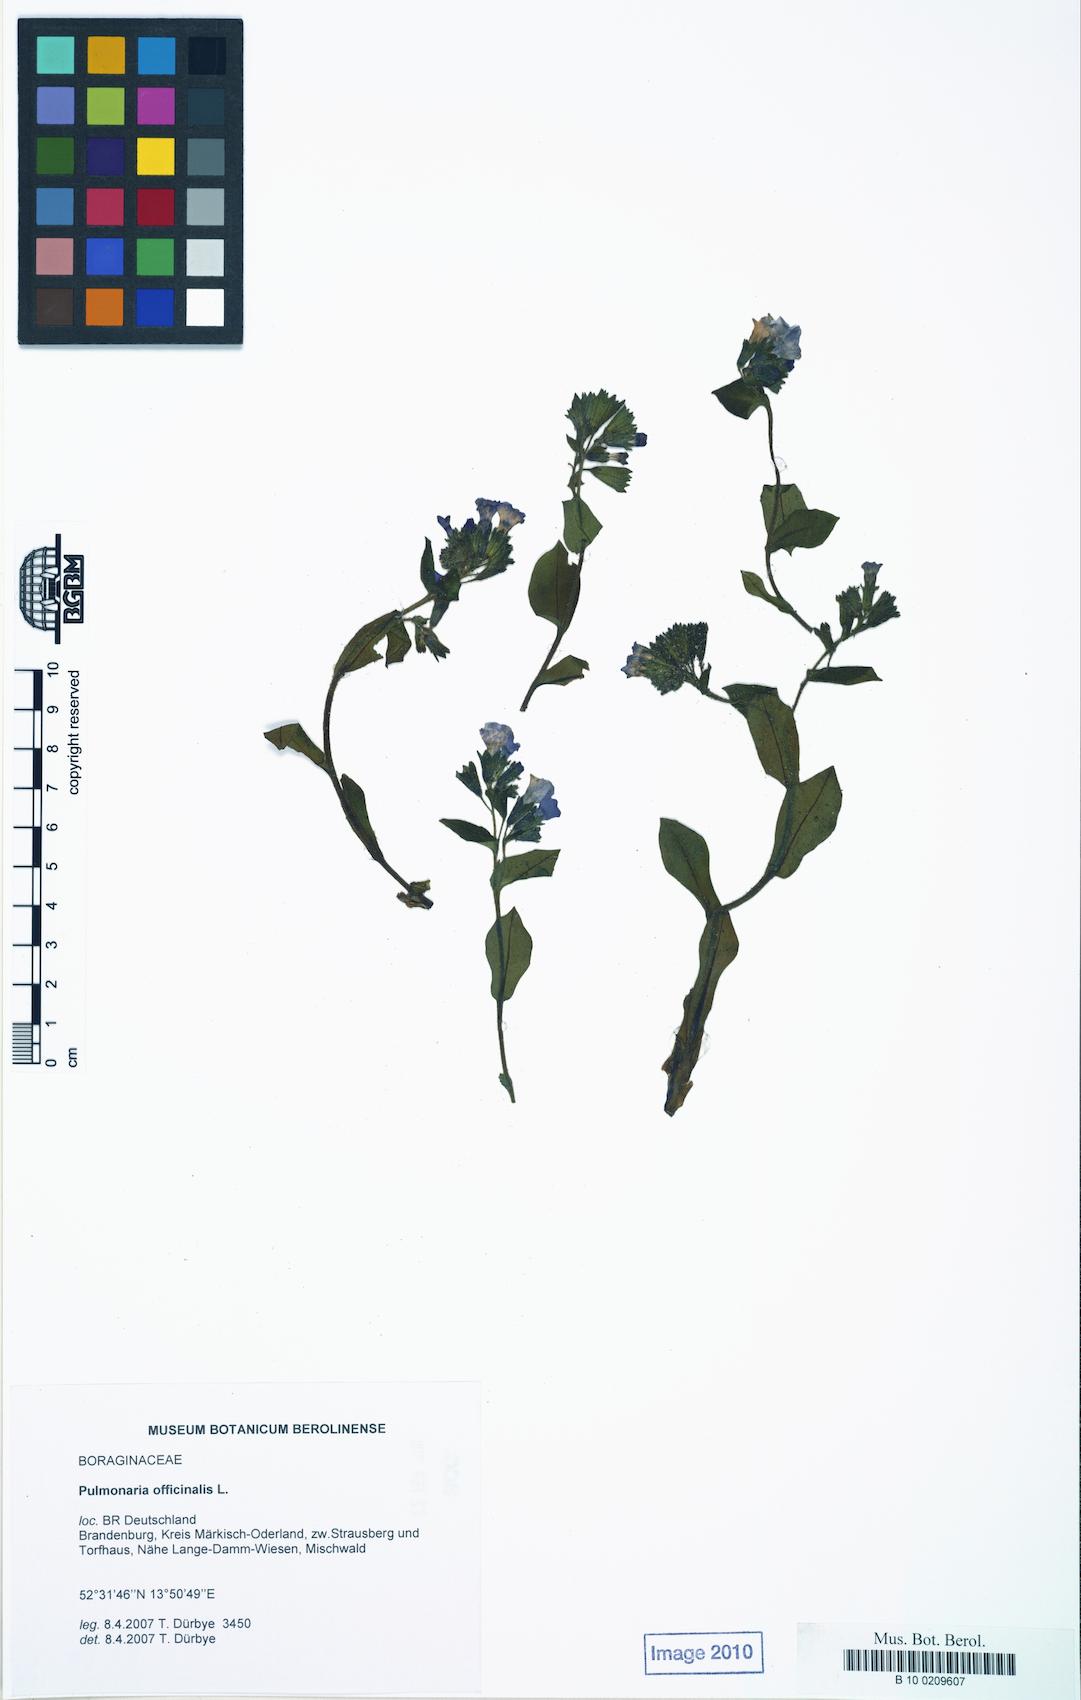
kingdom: Plantae
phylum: Tracheophyta
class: Magnoliopsida
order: Boraginales
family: Boraginaceae
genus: Pulmonaria
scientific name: Pulmonaria officinalis
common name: Lungwort
